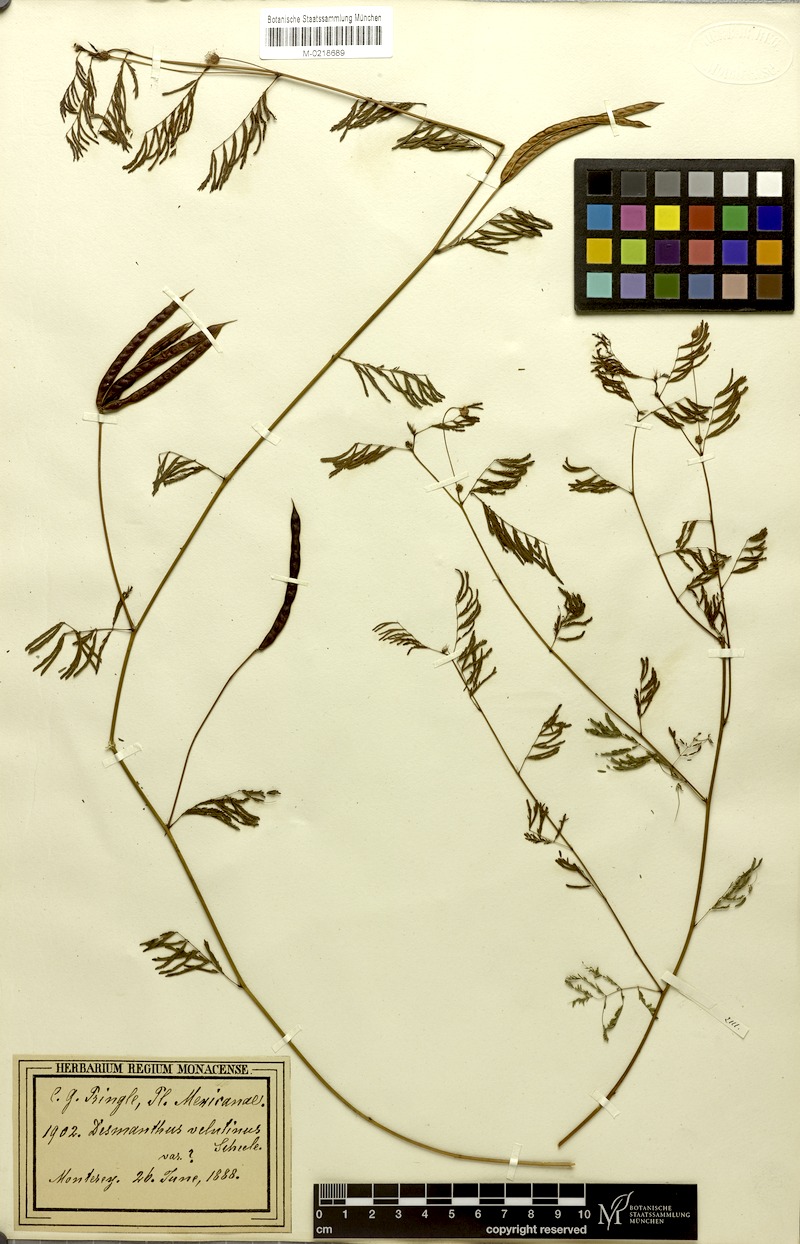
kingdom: Plantae
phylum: Tracheophyta
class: Magnoliopsida
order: Fabales
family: Fabaceae
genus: Desmanthus
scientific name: Desmanthus pringlei
